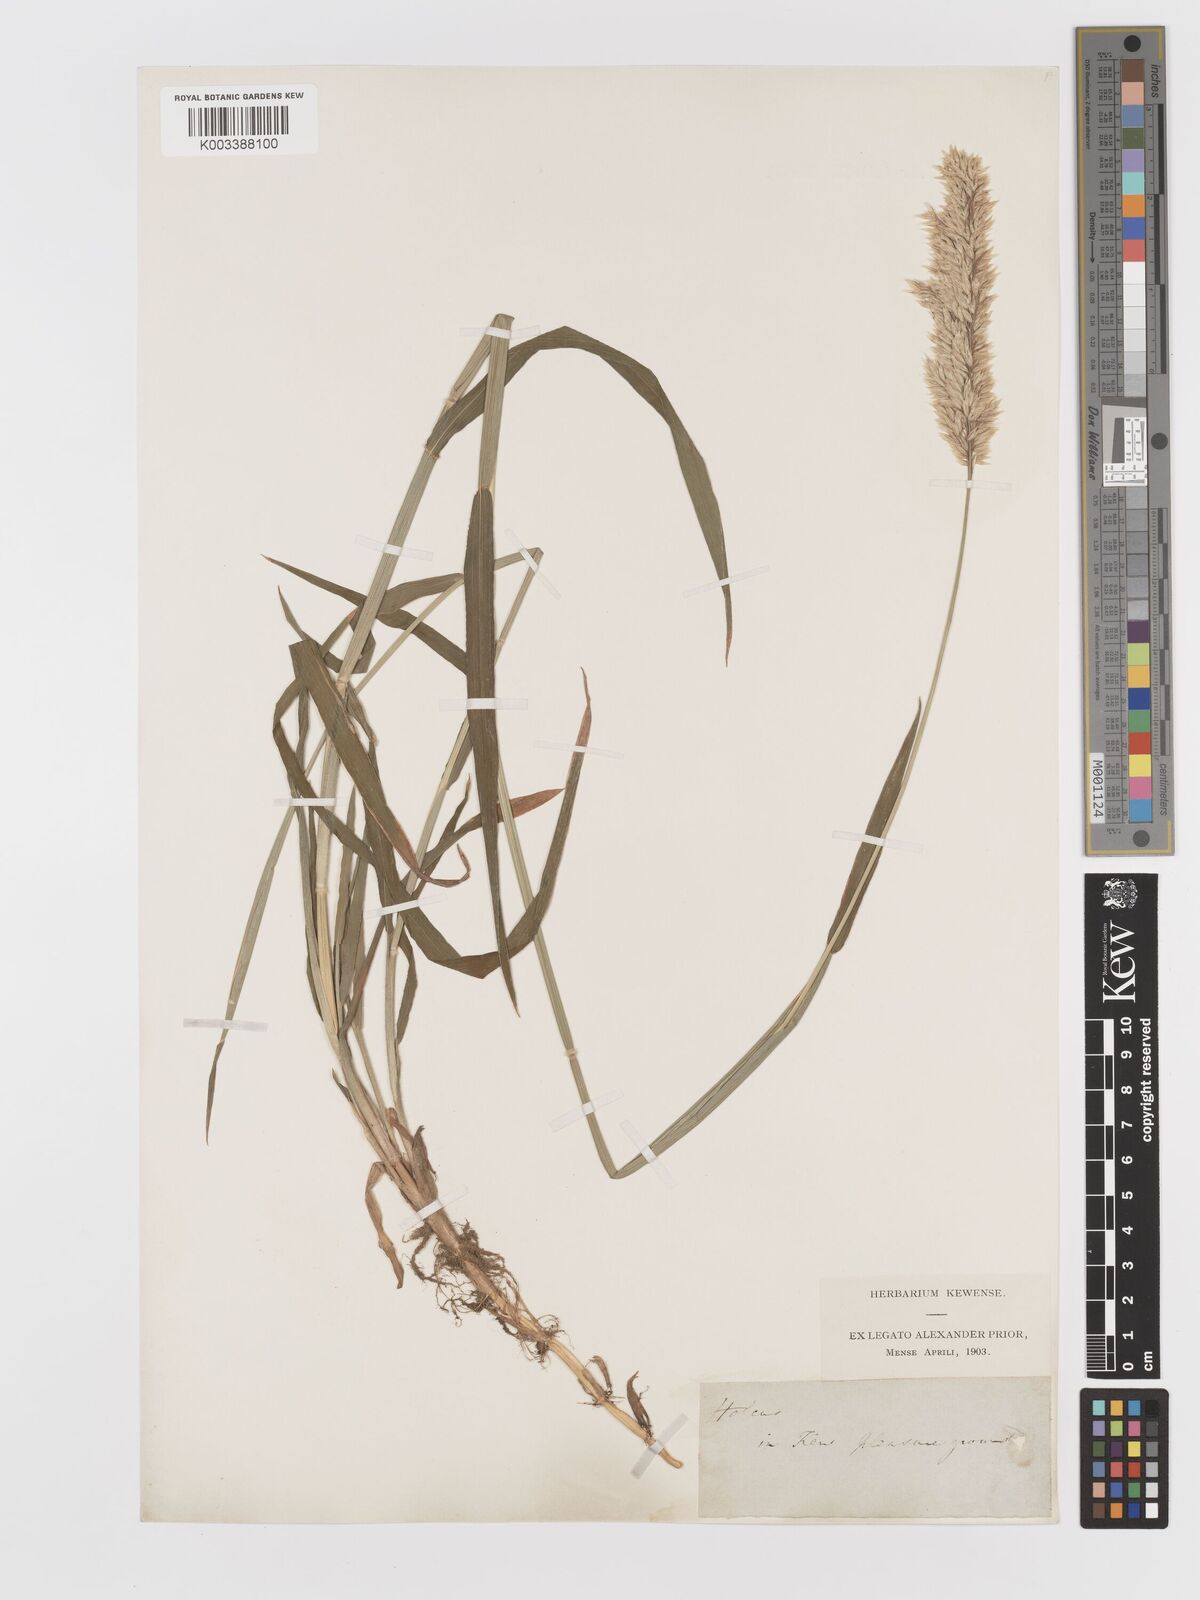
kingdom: Plantae
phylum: Tracheophyta
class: Liliopsida
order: Poales
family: Poaceae
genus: Holcus
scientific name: Holcus mollis
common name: Creeping velvetgrass
